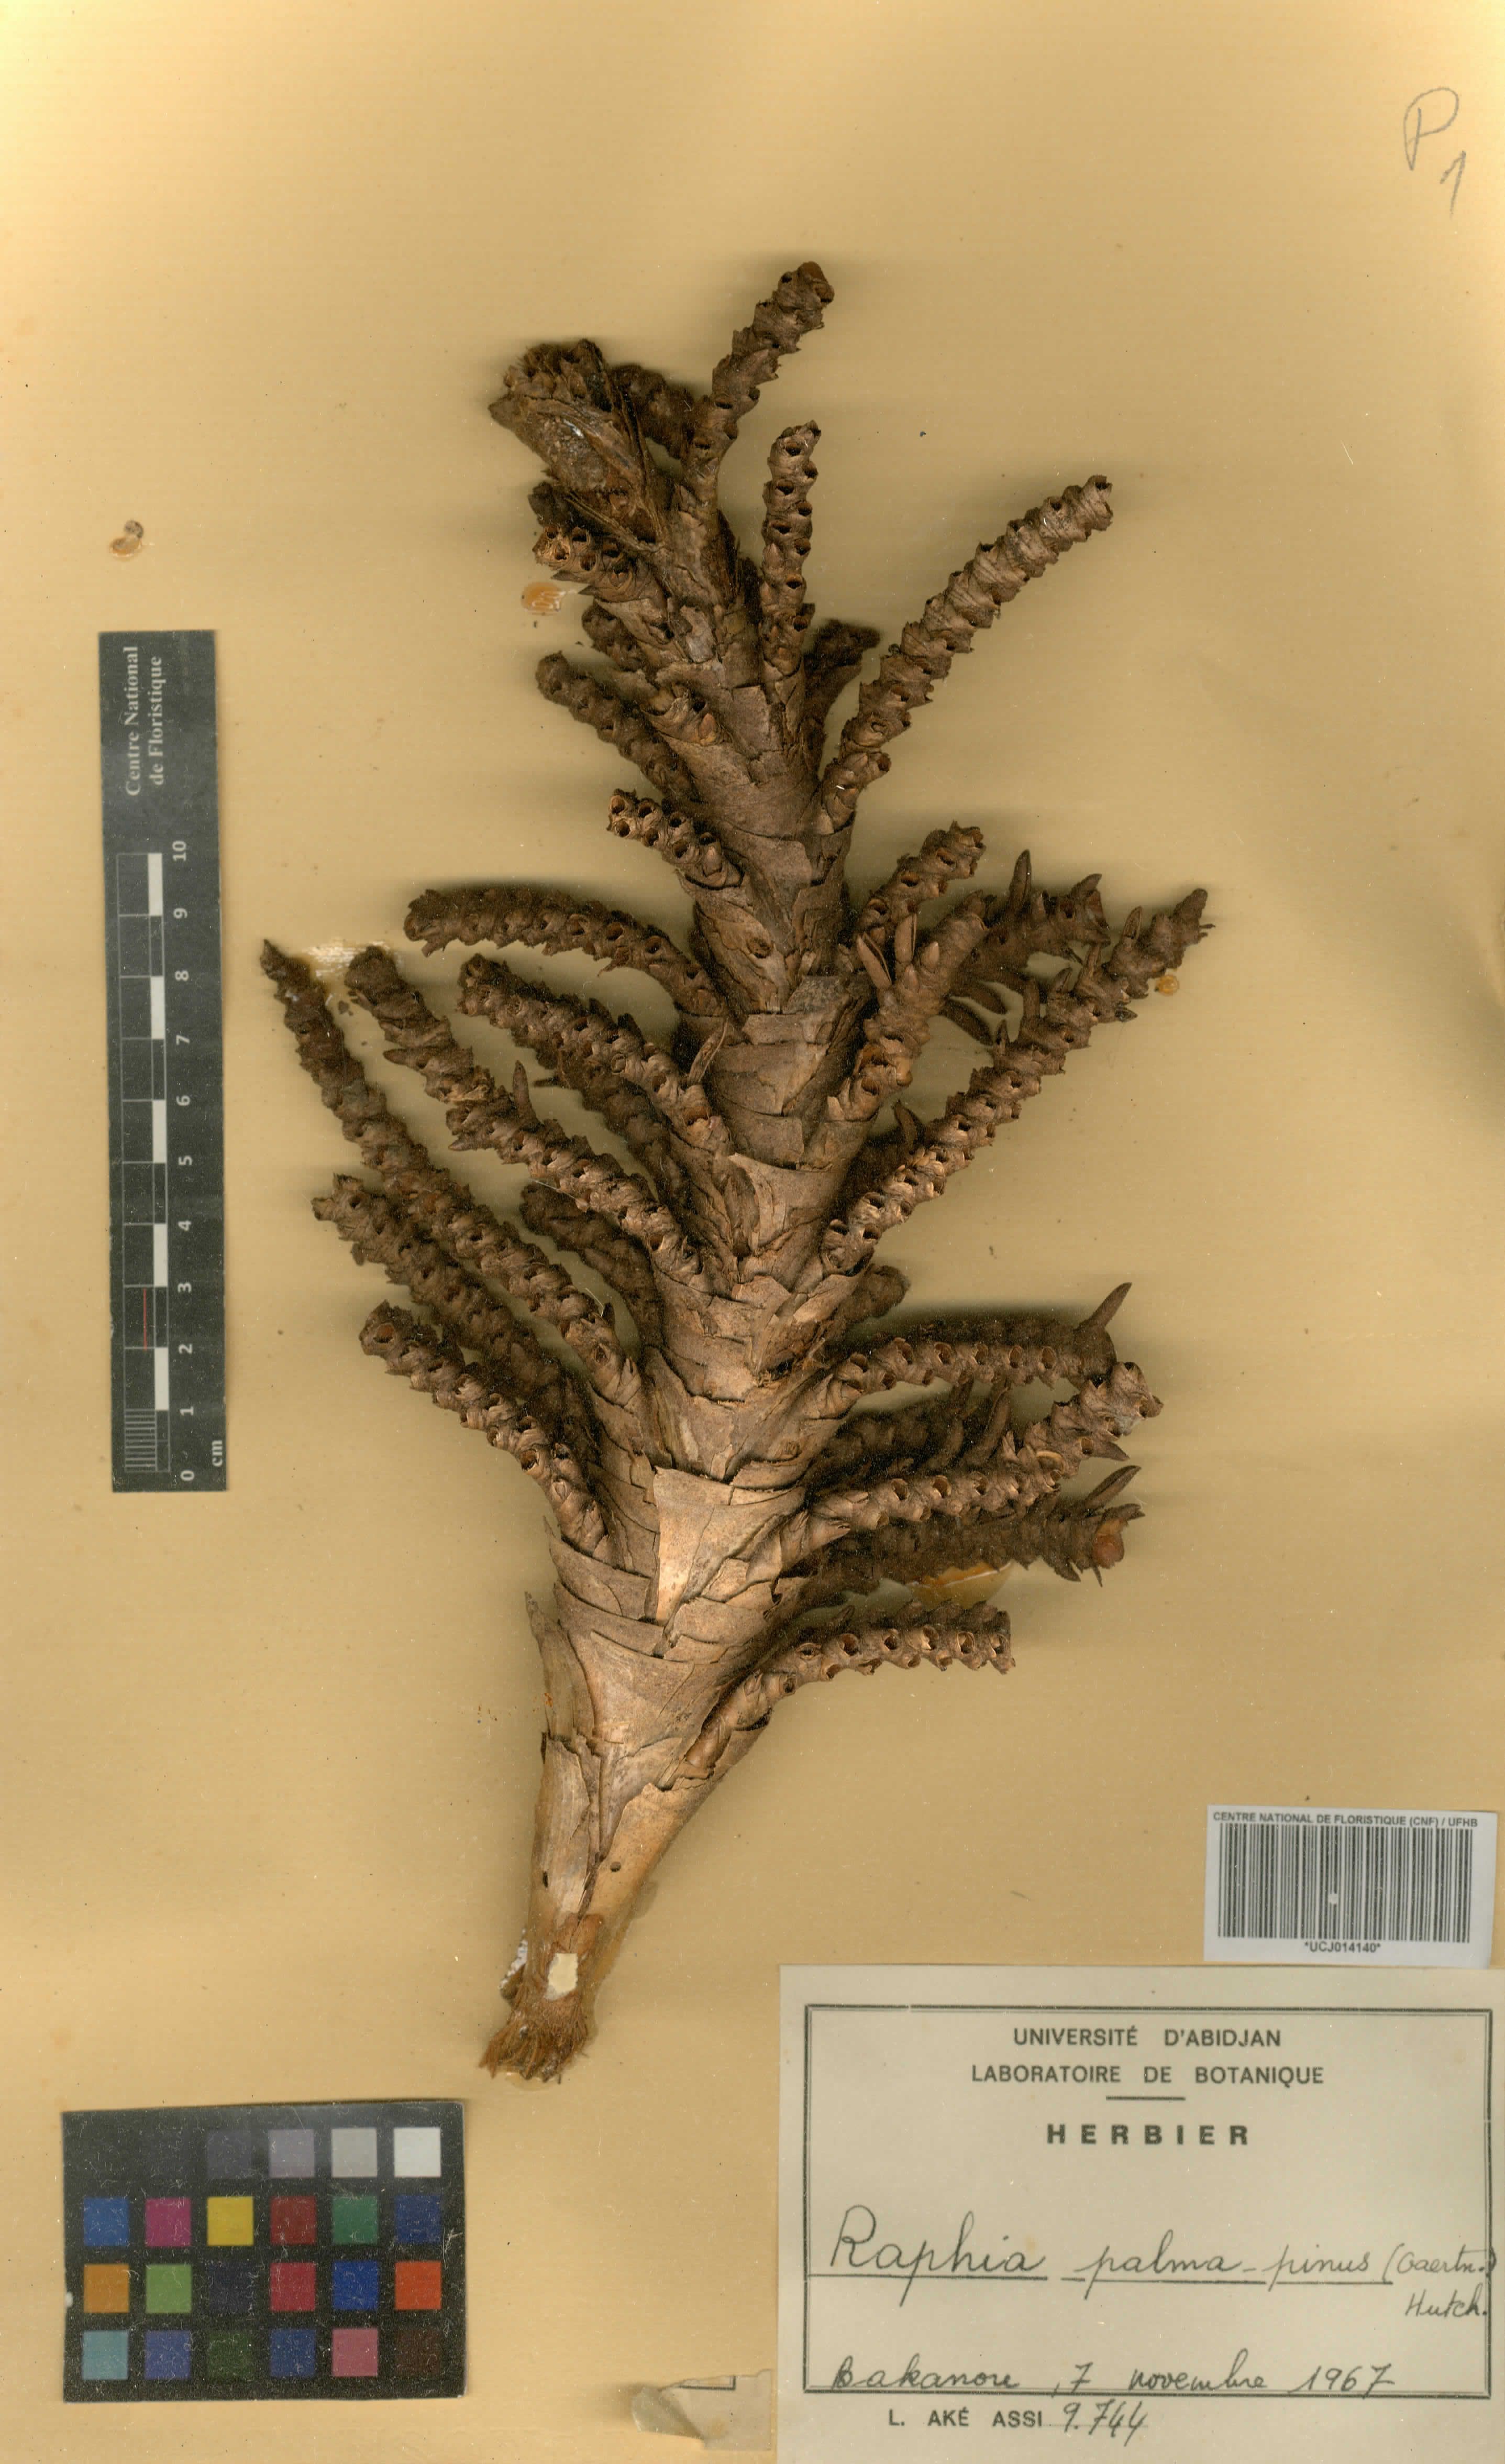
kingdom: Plantae
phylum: Tracheophyta
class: Liliopsida
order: Arecales
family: Arecaceae
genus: Raphia
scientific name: Raphia palma-pinus
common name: Raphia palm
